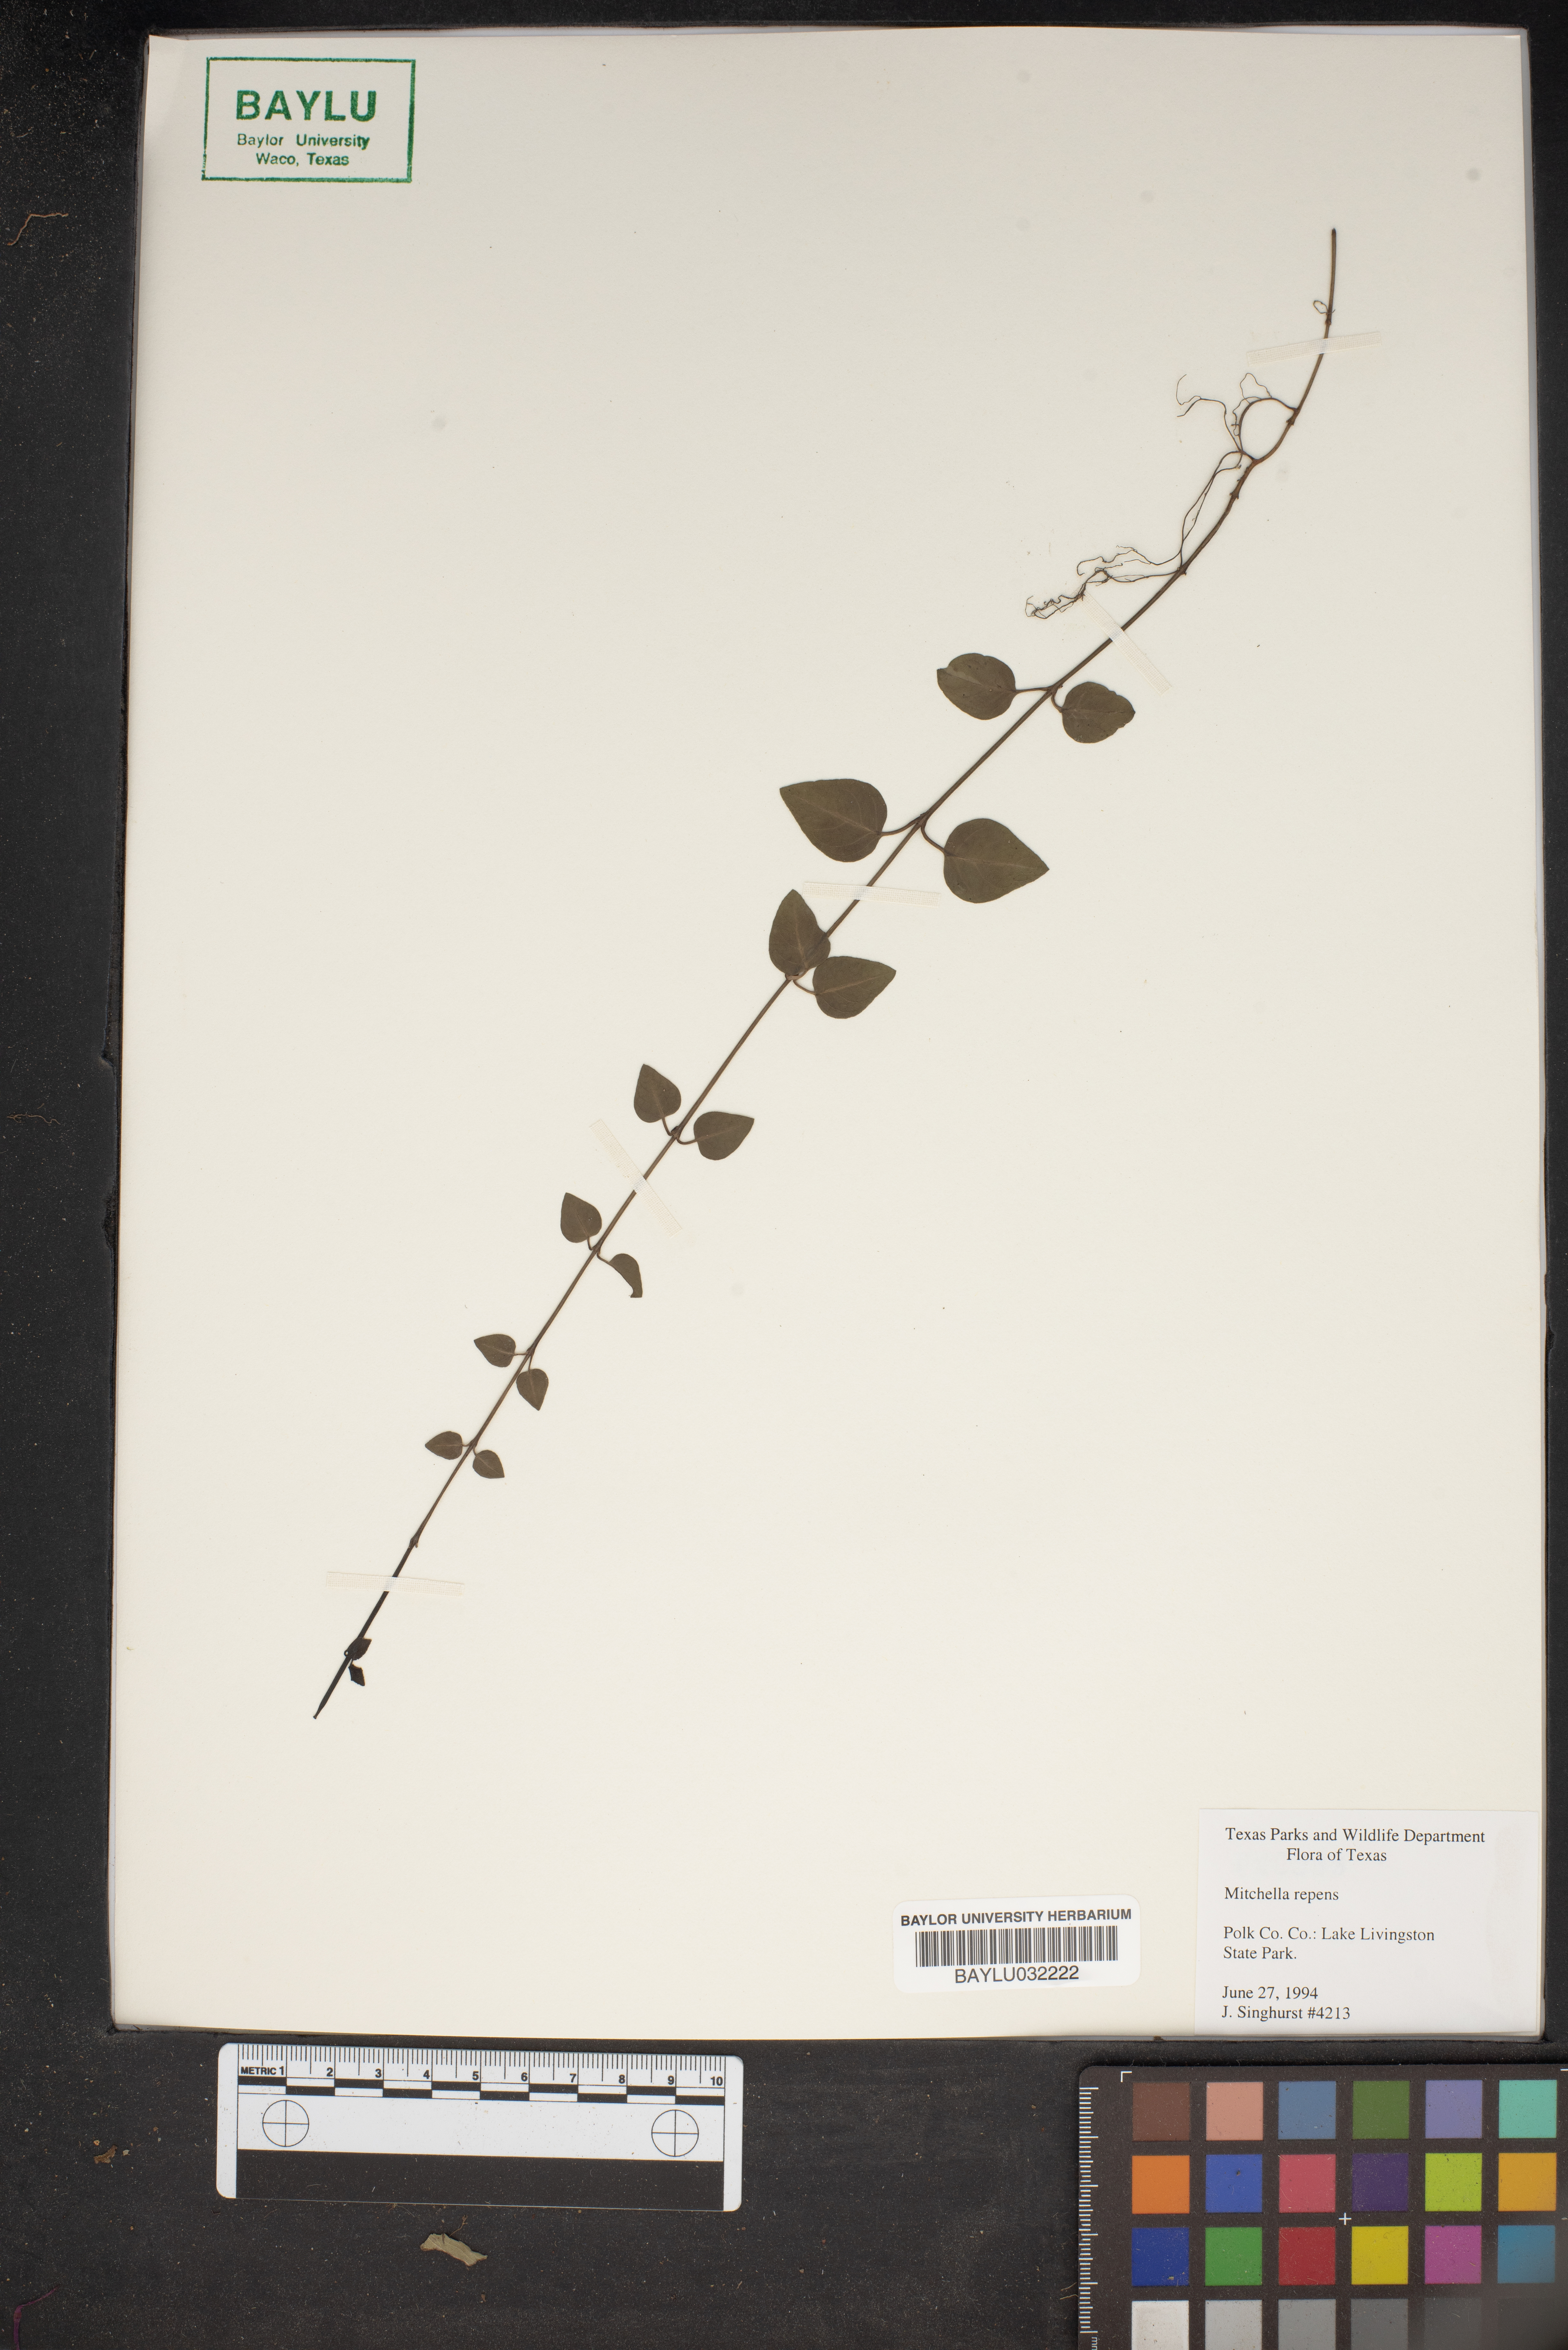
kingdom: Plantae
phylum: Tracheophyta
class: Magnoliopsida
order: Gentianales
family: Rubiaceae
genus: Mitchella
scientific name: Mitchella repens
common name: Partridge-berry
